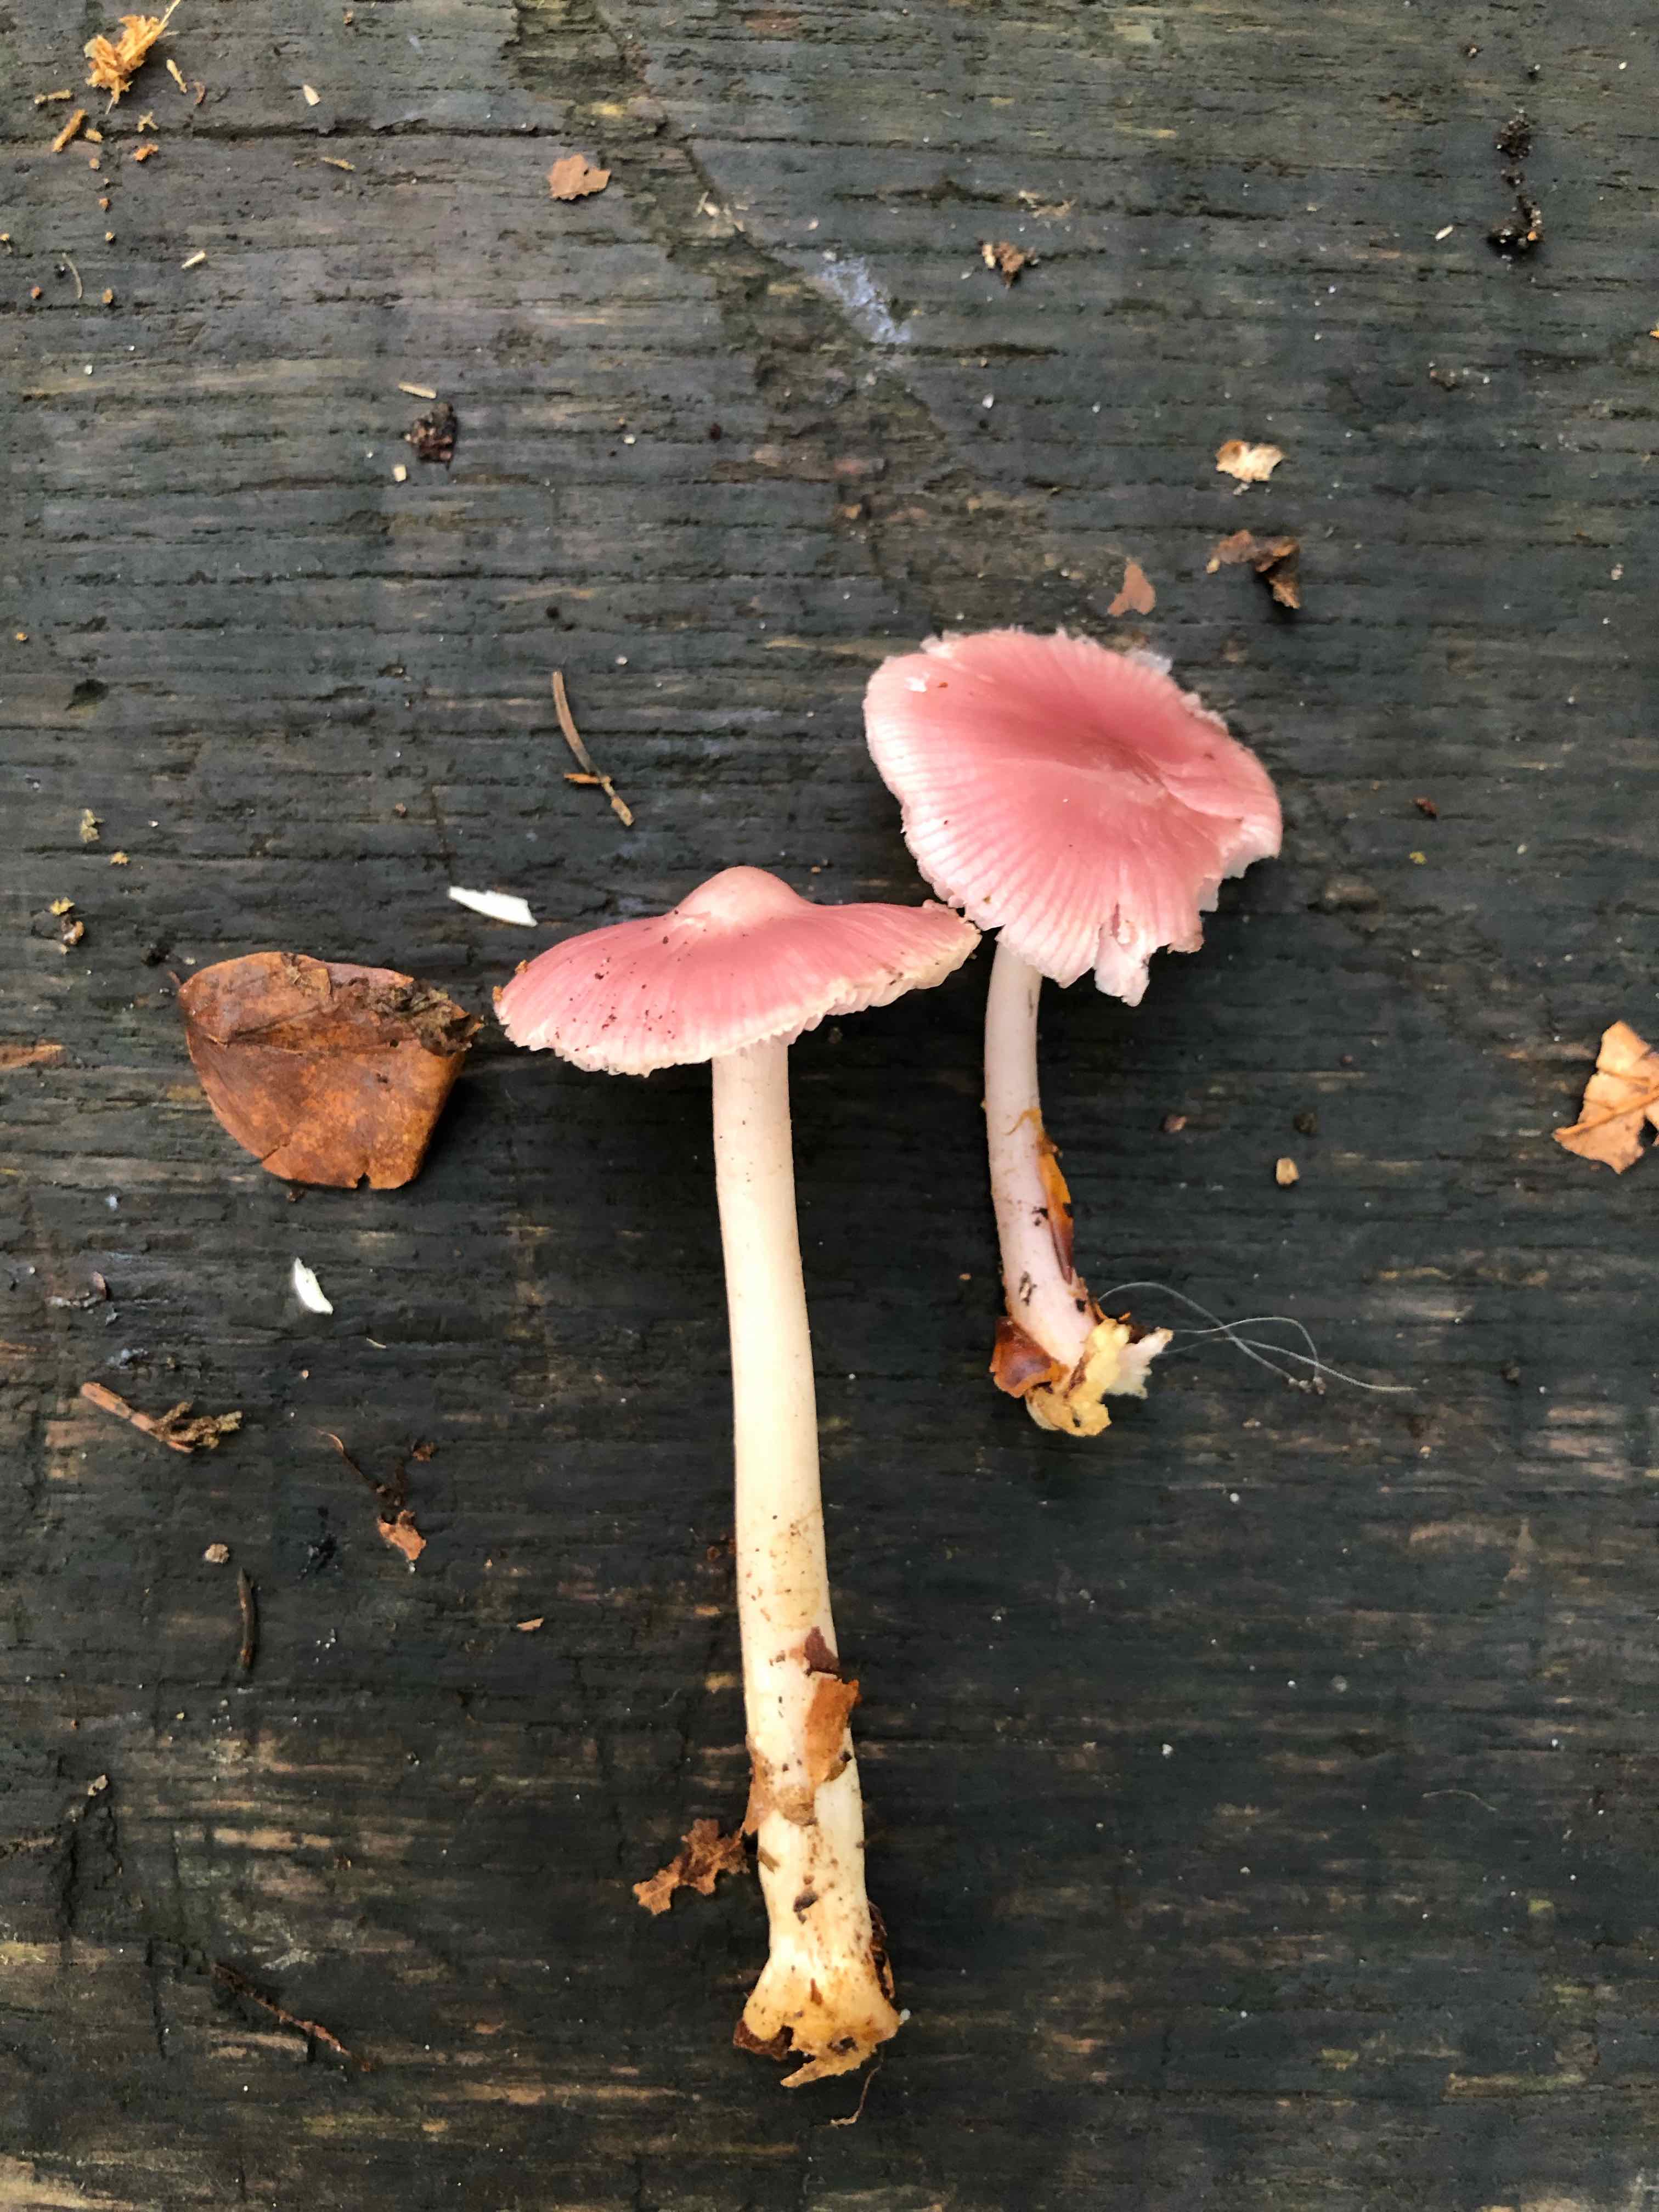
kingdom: Fungi
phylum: Basidiomycota
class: Agaricomycetes
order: Agaricales
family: Mycenaceae
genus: Mycena
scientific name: Mycena rosea
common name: rosa huesvamp
